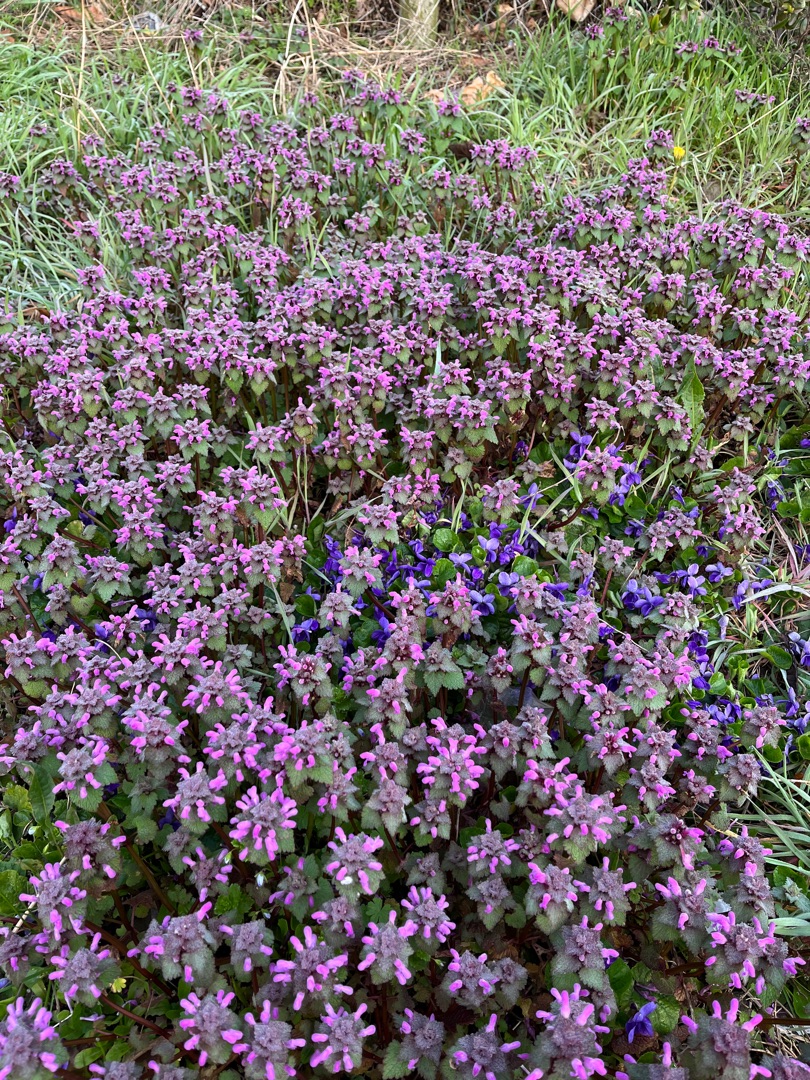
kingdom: Plantae
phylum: Tracheophyta
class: Magnoliopsida
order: Lamiales
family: Lamiaceae
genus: Lamium
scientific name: Lamium purpureum
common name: Rød tvetand
